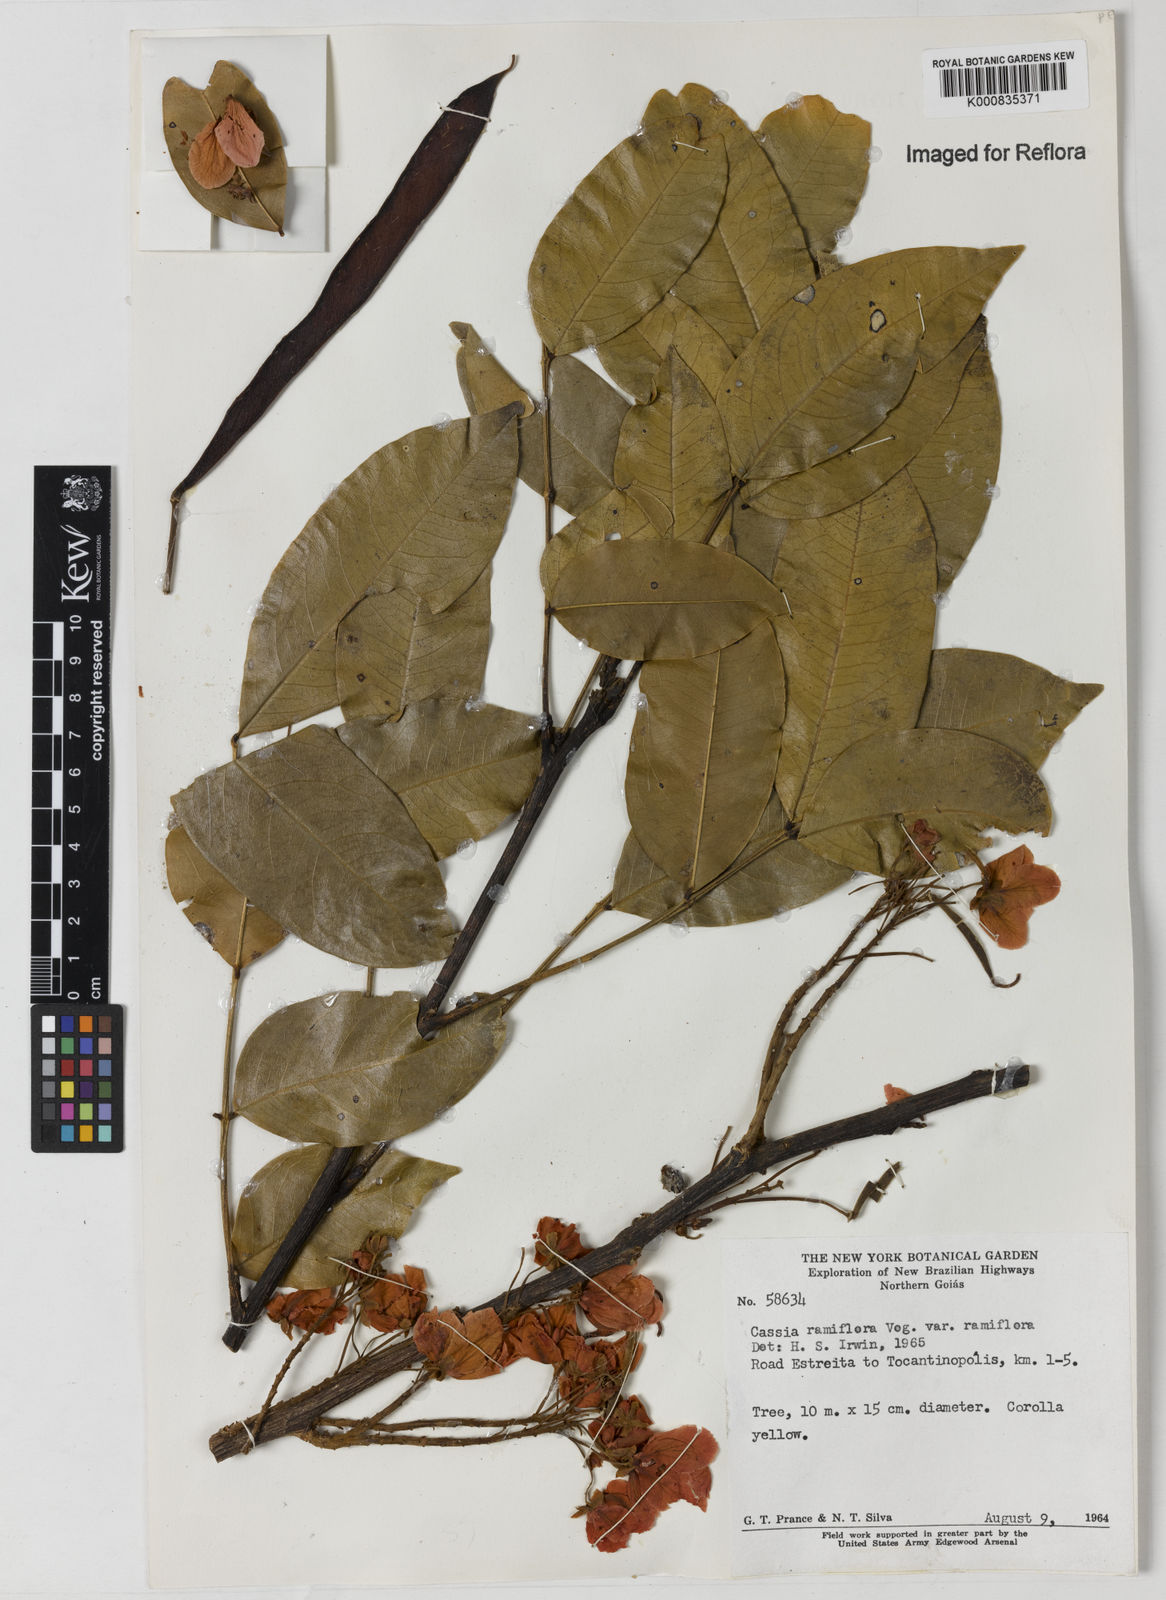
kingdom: Plantae
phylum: Tracheophyta
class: Magnoliopsida
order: Fabales
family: Fabaceae
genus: Chamaecrista
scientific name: Chamaecrista ensiformis
